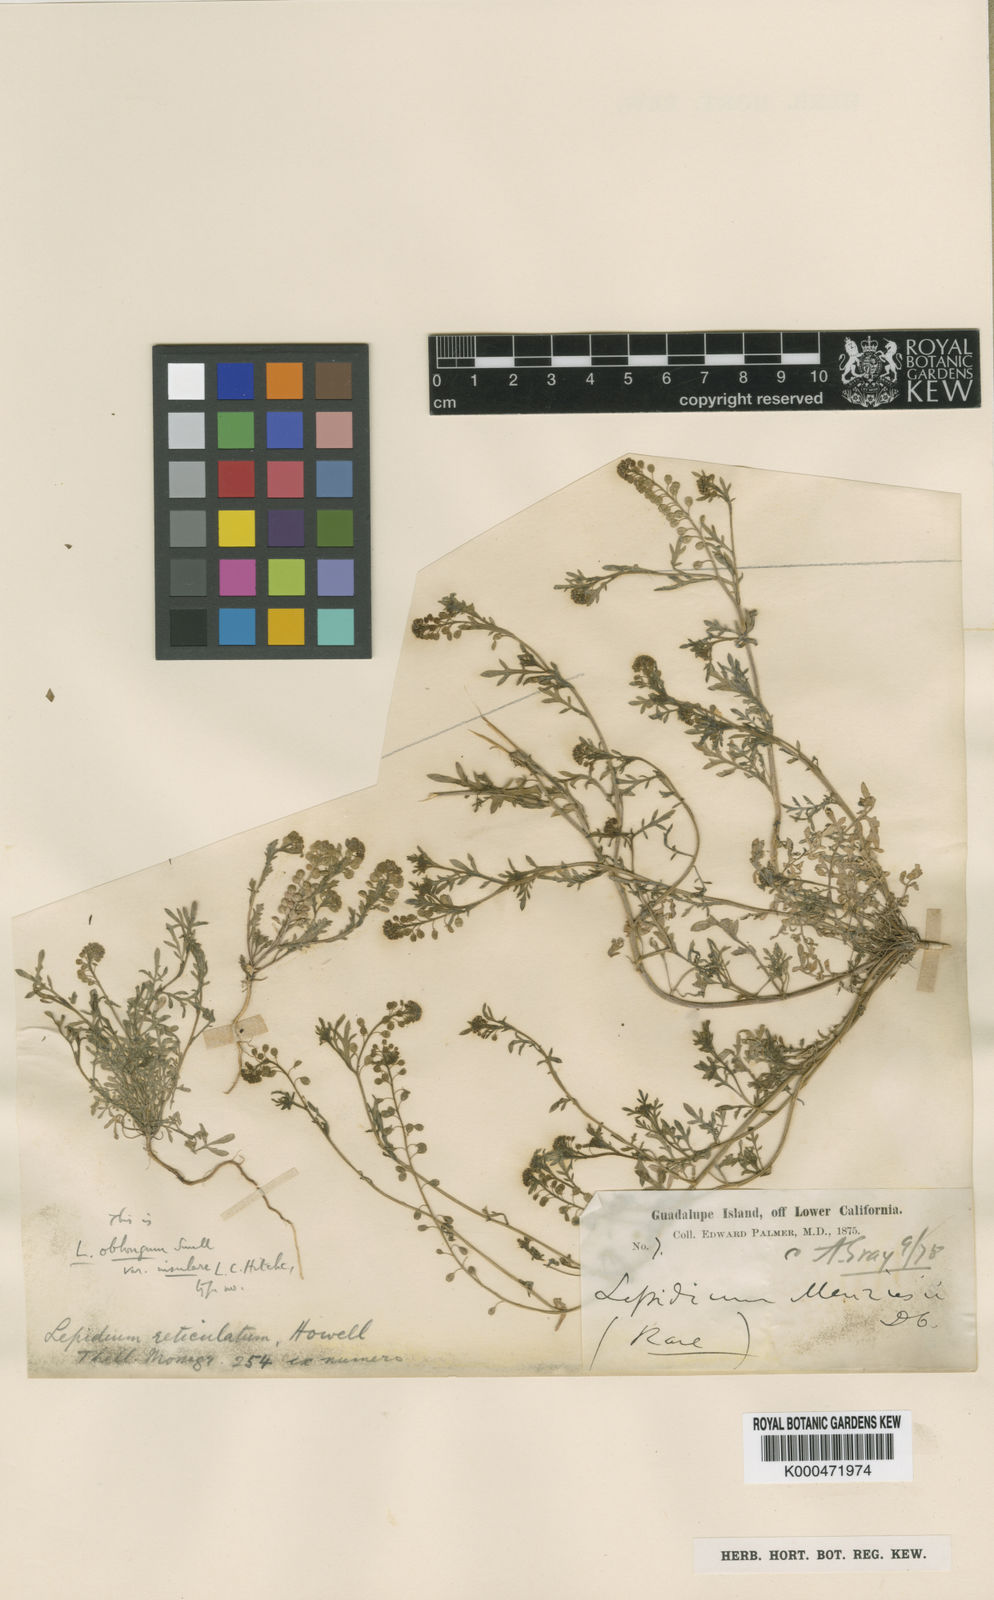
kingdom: Plantae
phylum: Tracheophyta
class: Magnoliopsida
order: Brassicales
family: Brassicaceae
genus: Lepidium
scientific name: Lepidium oblongum
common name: Veiny pepperweed
